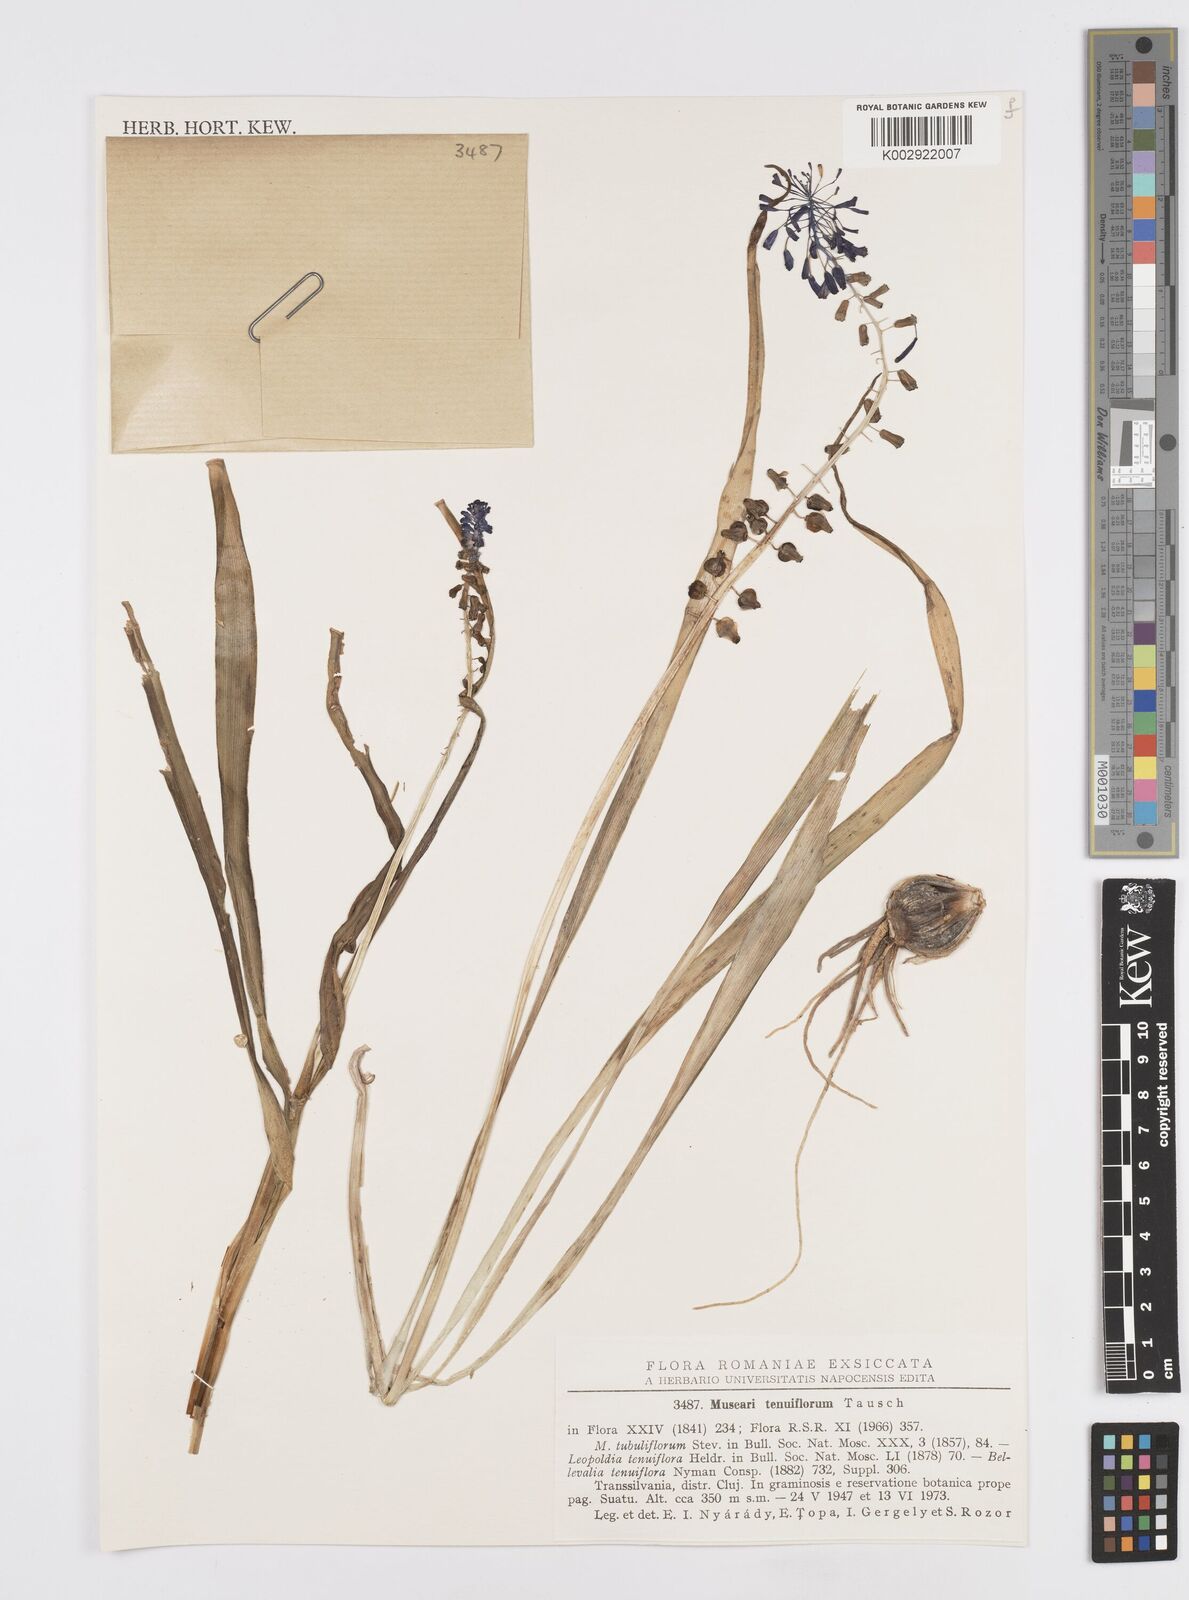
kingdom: Plantae
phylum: Tracheophyta
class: Liliopsida
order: Asparagales
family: Asparagaceae
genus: Muscari
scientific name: Muscari tenuiflorum
